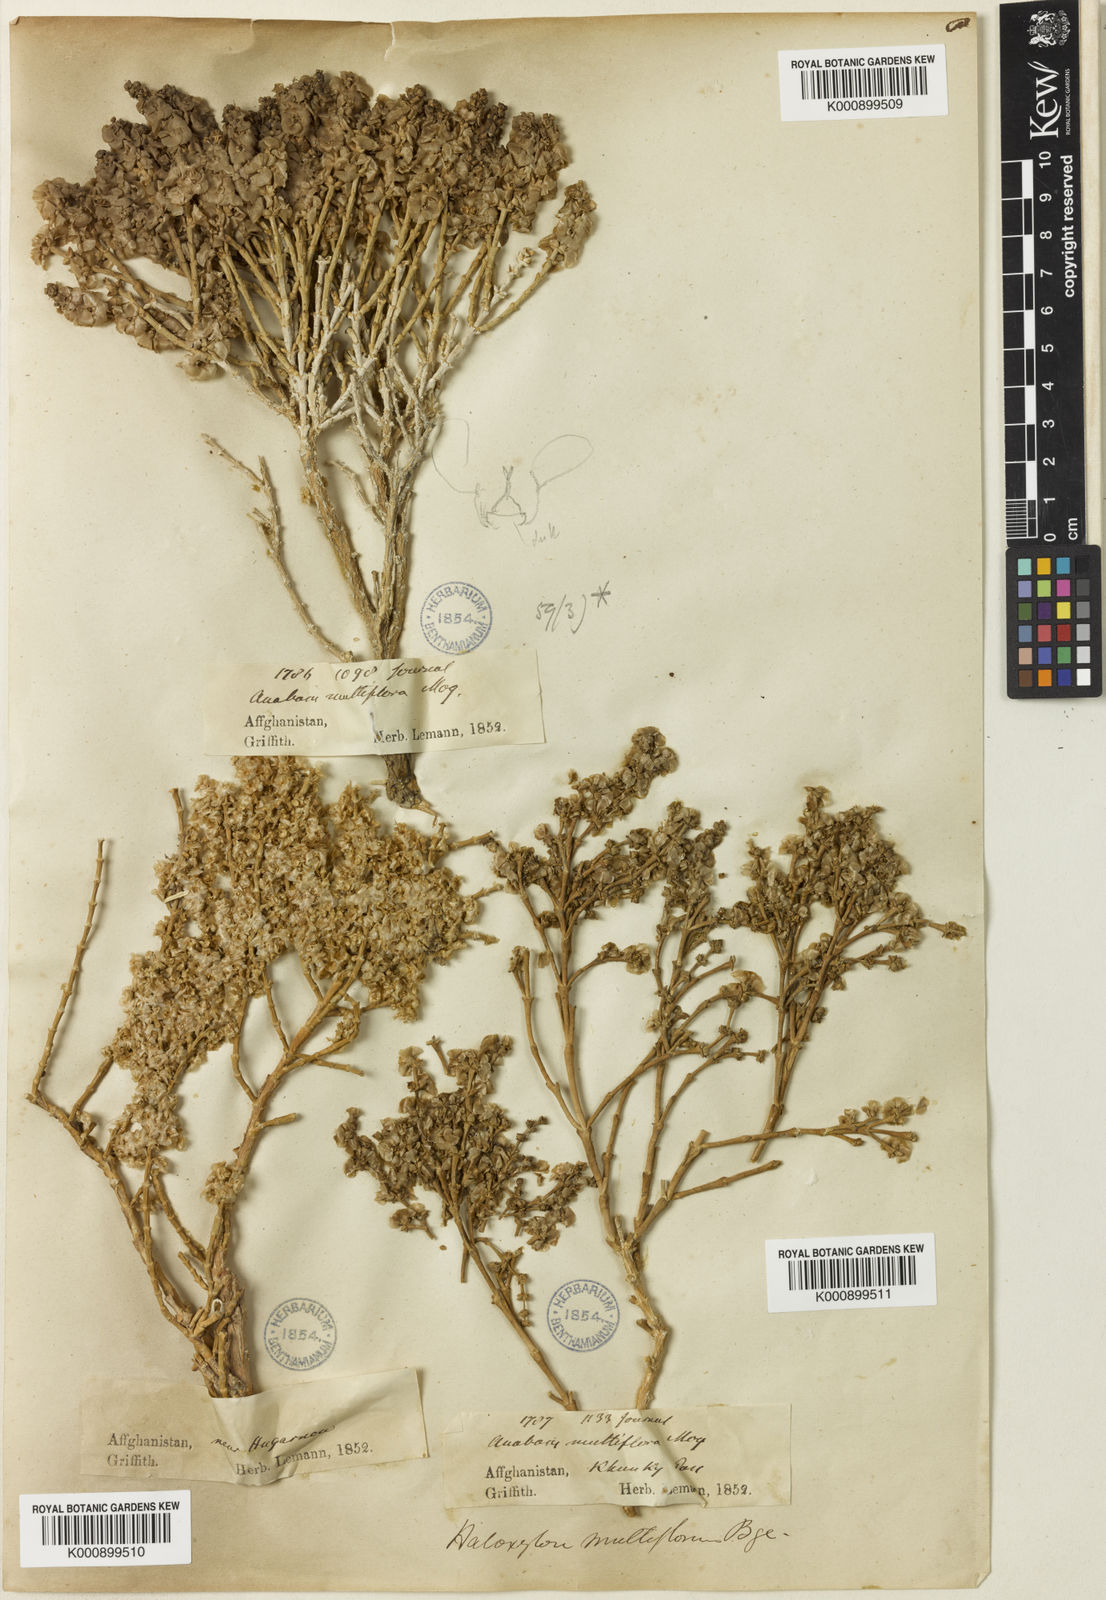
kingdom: Plantae
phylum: Tracheophyta
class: Magnoliopsida
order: Caryophyllales
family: Amaranthaceae
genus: Haloxylon
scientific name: Haloxylon multiflorum
